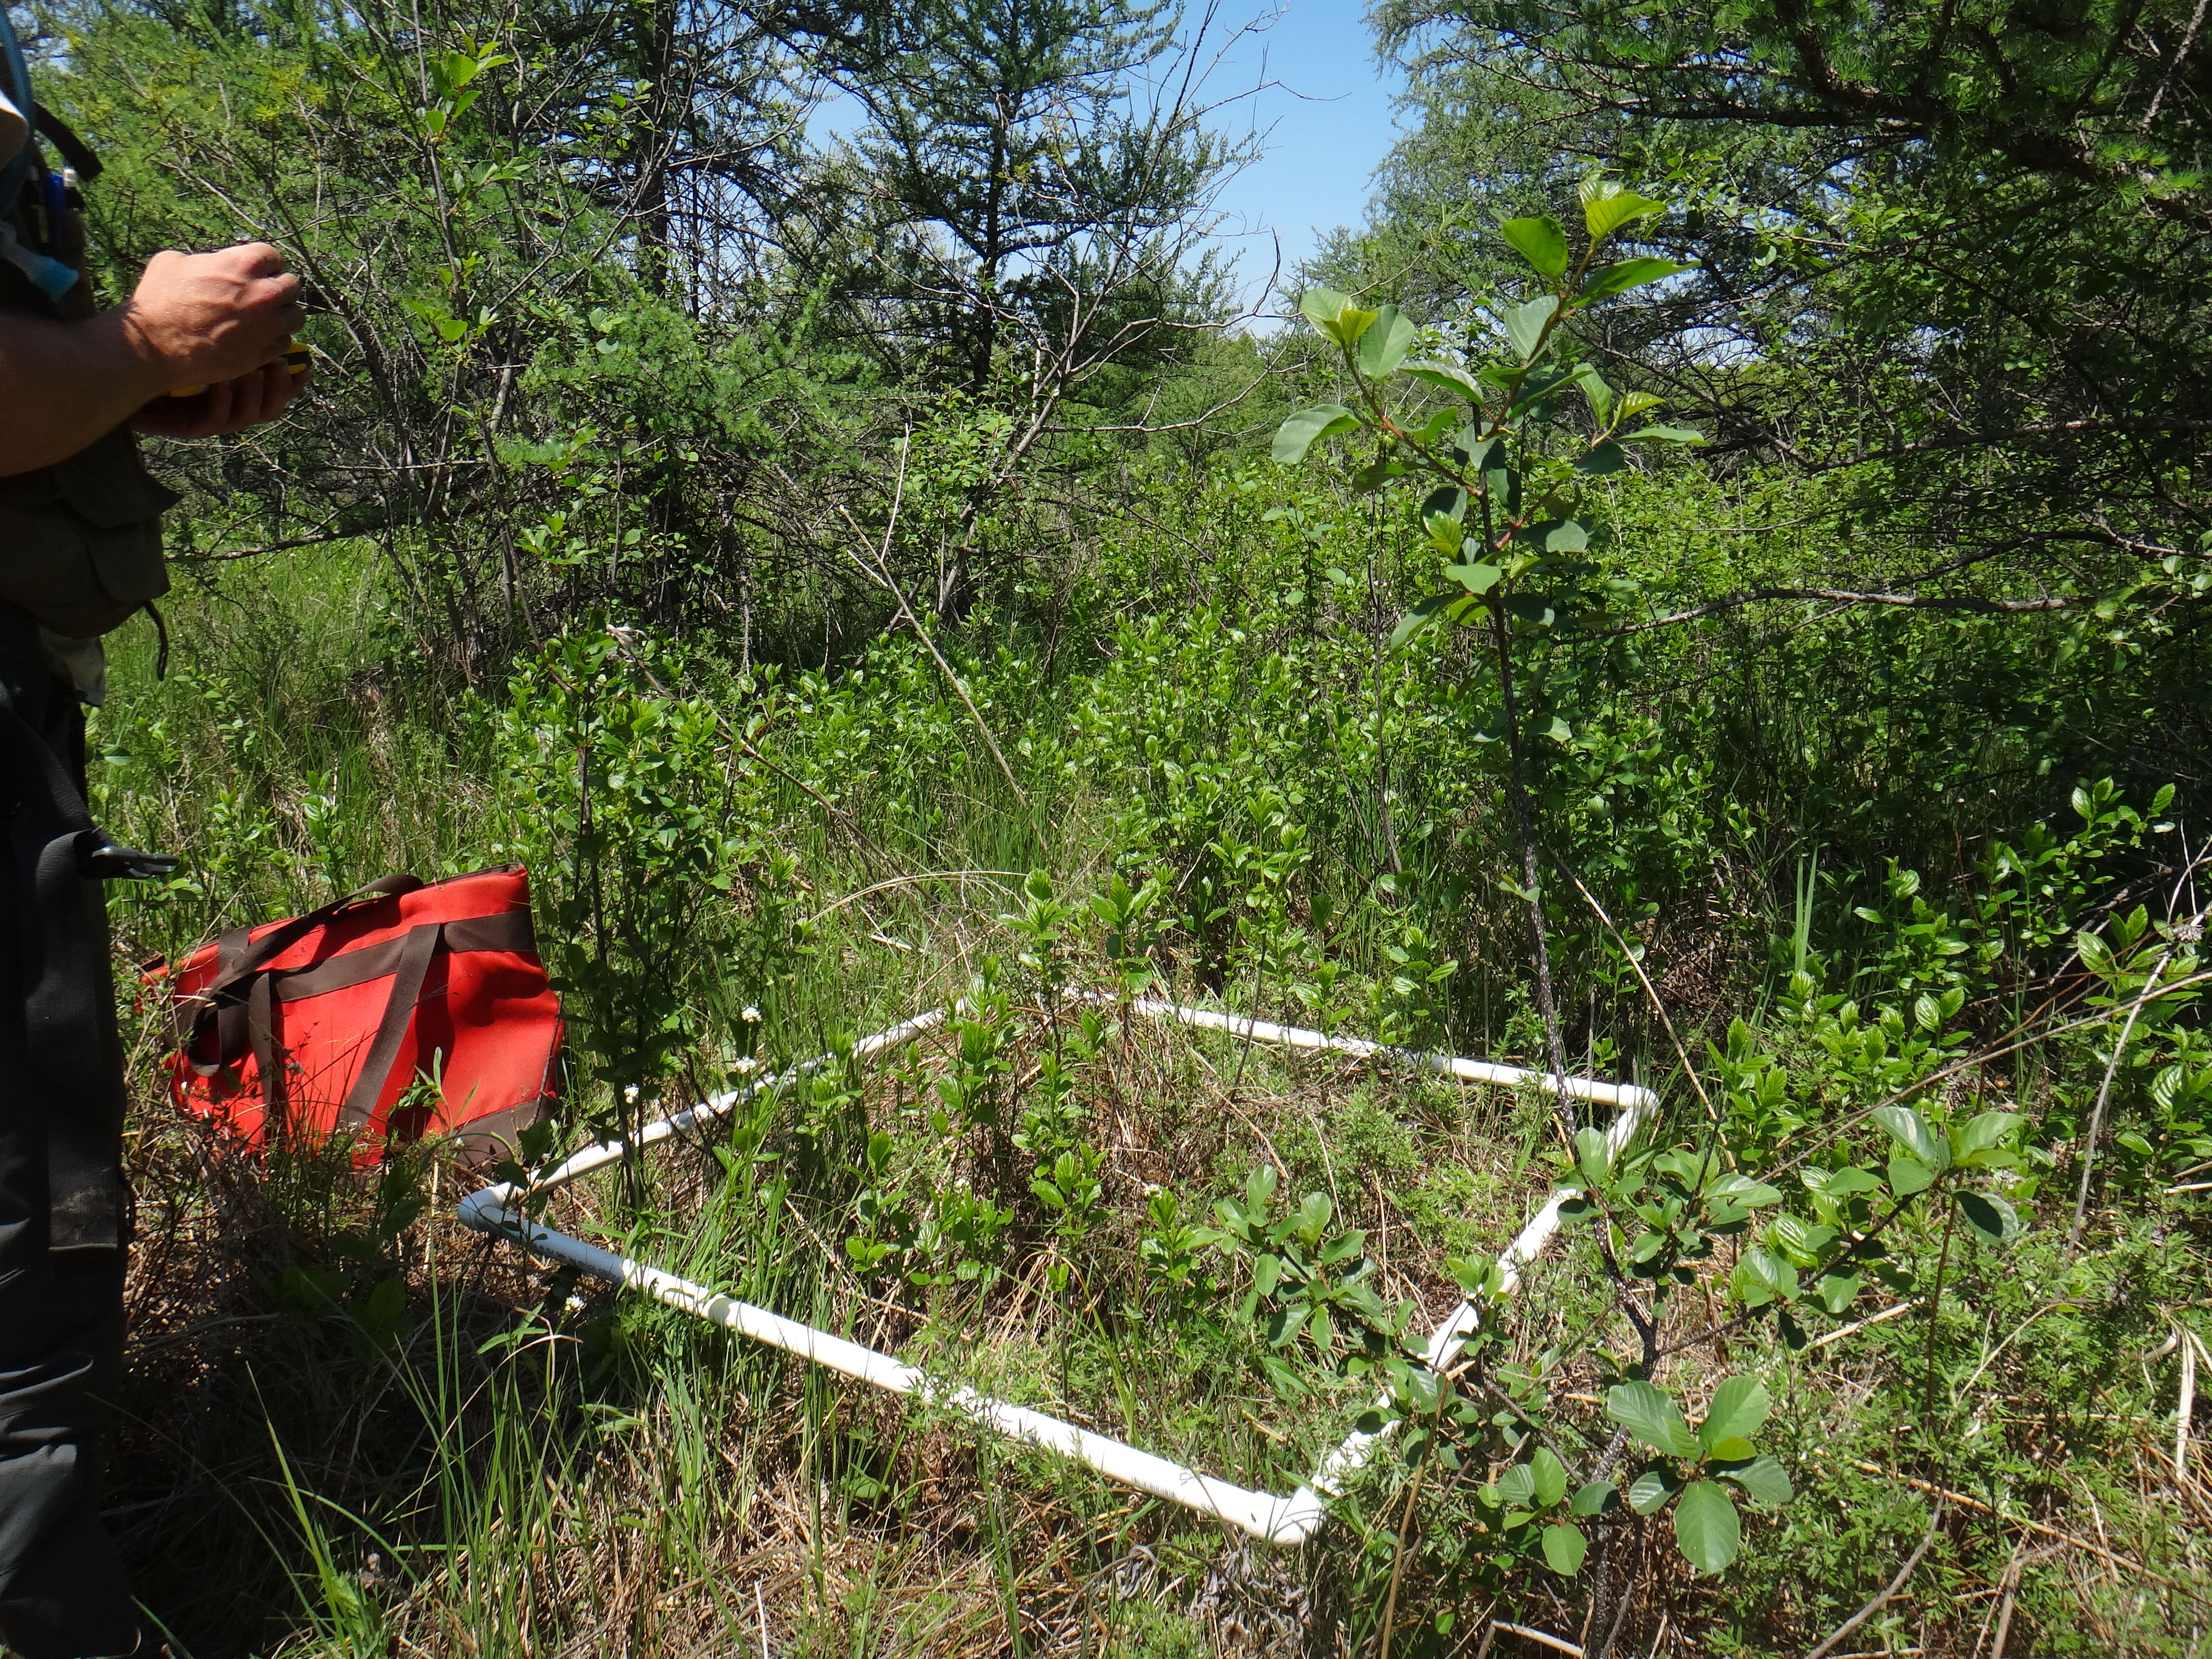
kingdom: Plantae
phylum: Tracheophyta
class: Magnoliopsida
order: Asterales
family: Asteraceae
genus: Helianthus
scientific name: Helianthus giganteus
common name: Giant sunflower
